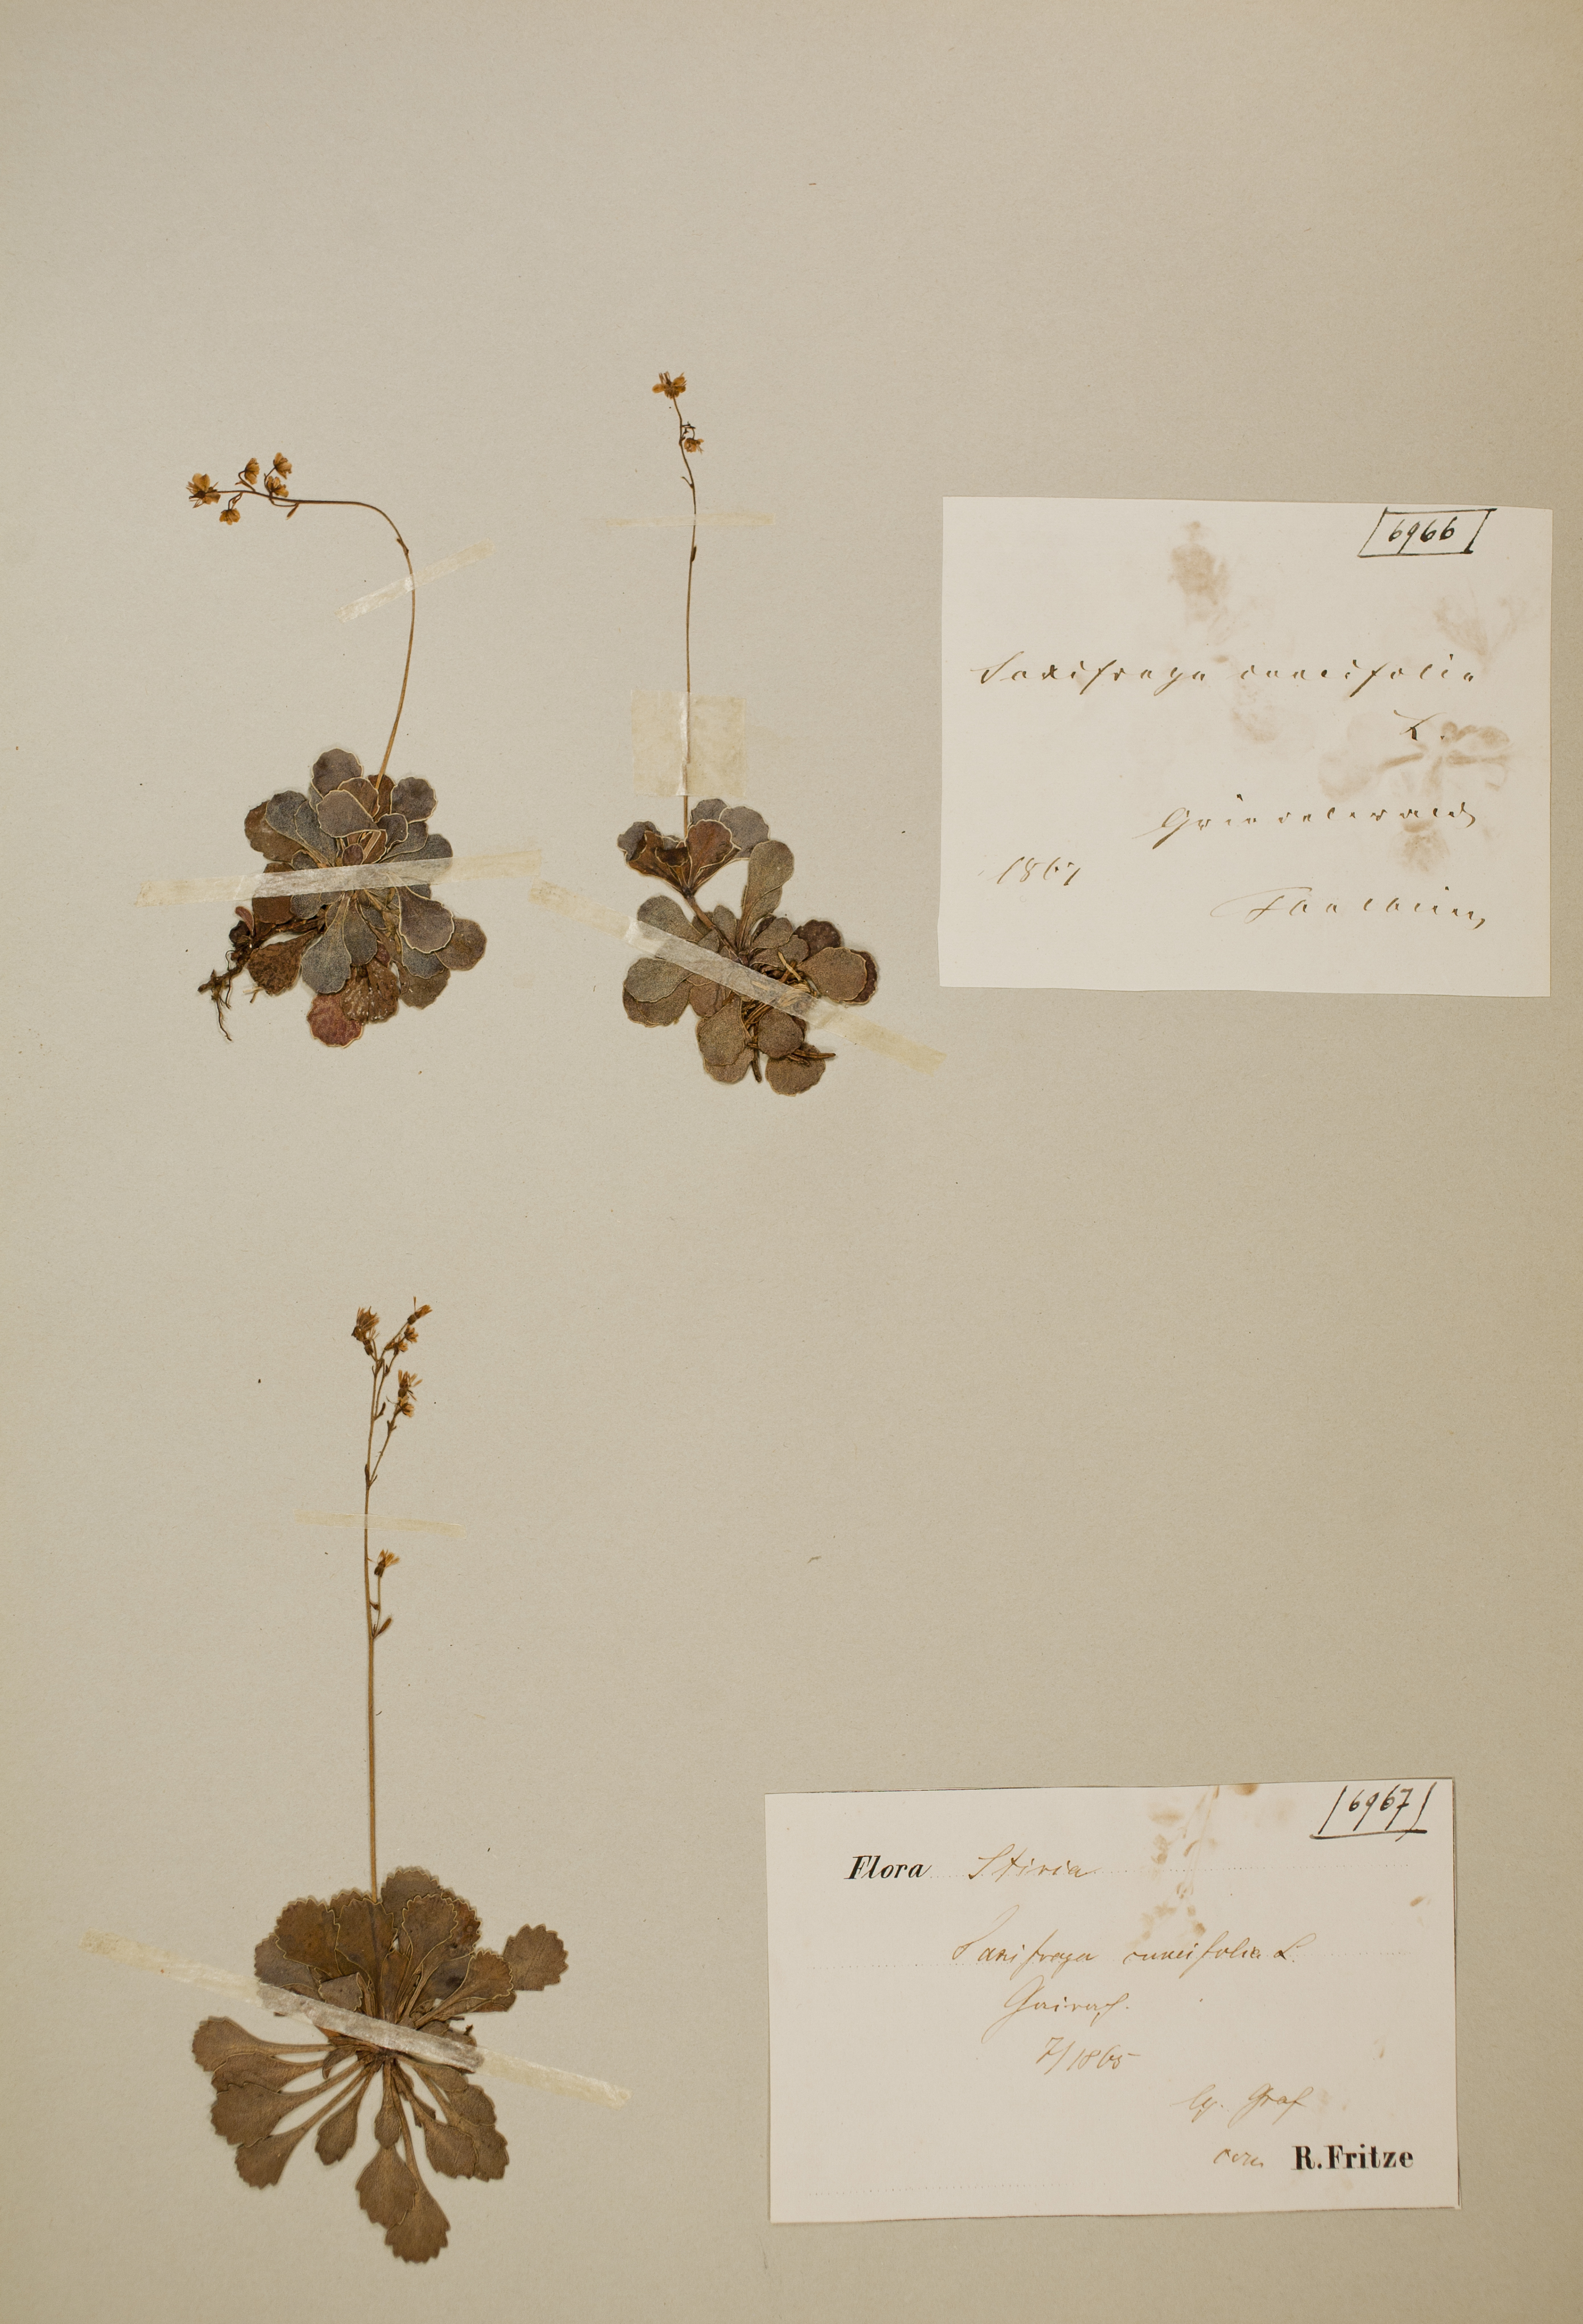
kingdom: Plantae
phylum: Tracheophyta
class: Magnoliopsida
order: Saxifragales
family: Saxifragaceae
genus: Saxifraga
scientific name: Saxifraga cuneifolia
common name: Lesser londonpride
